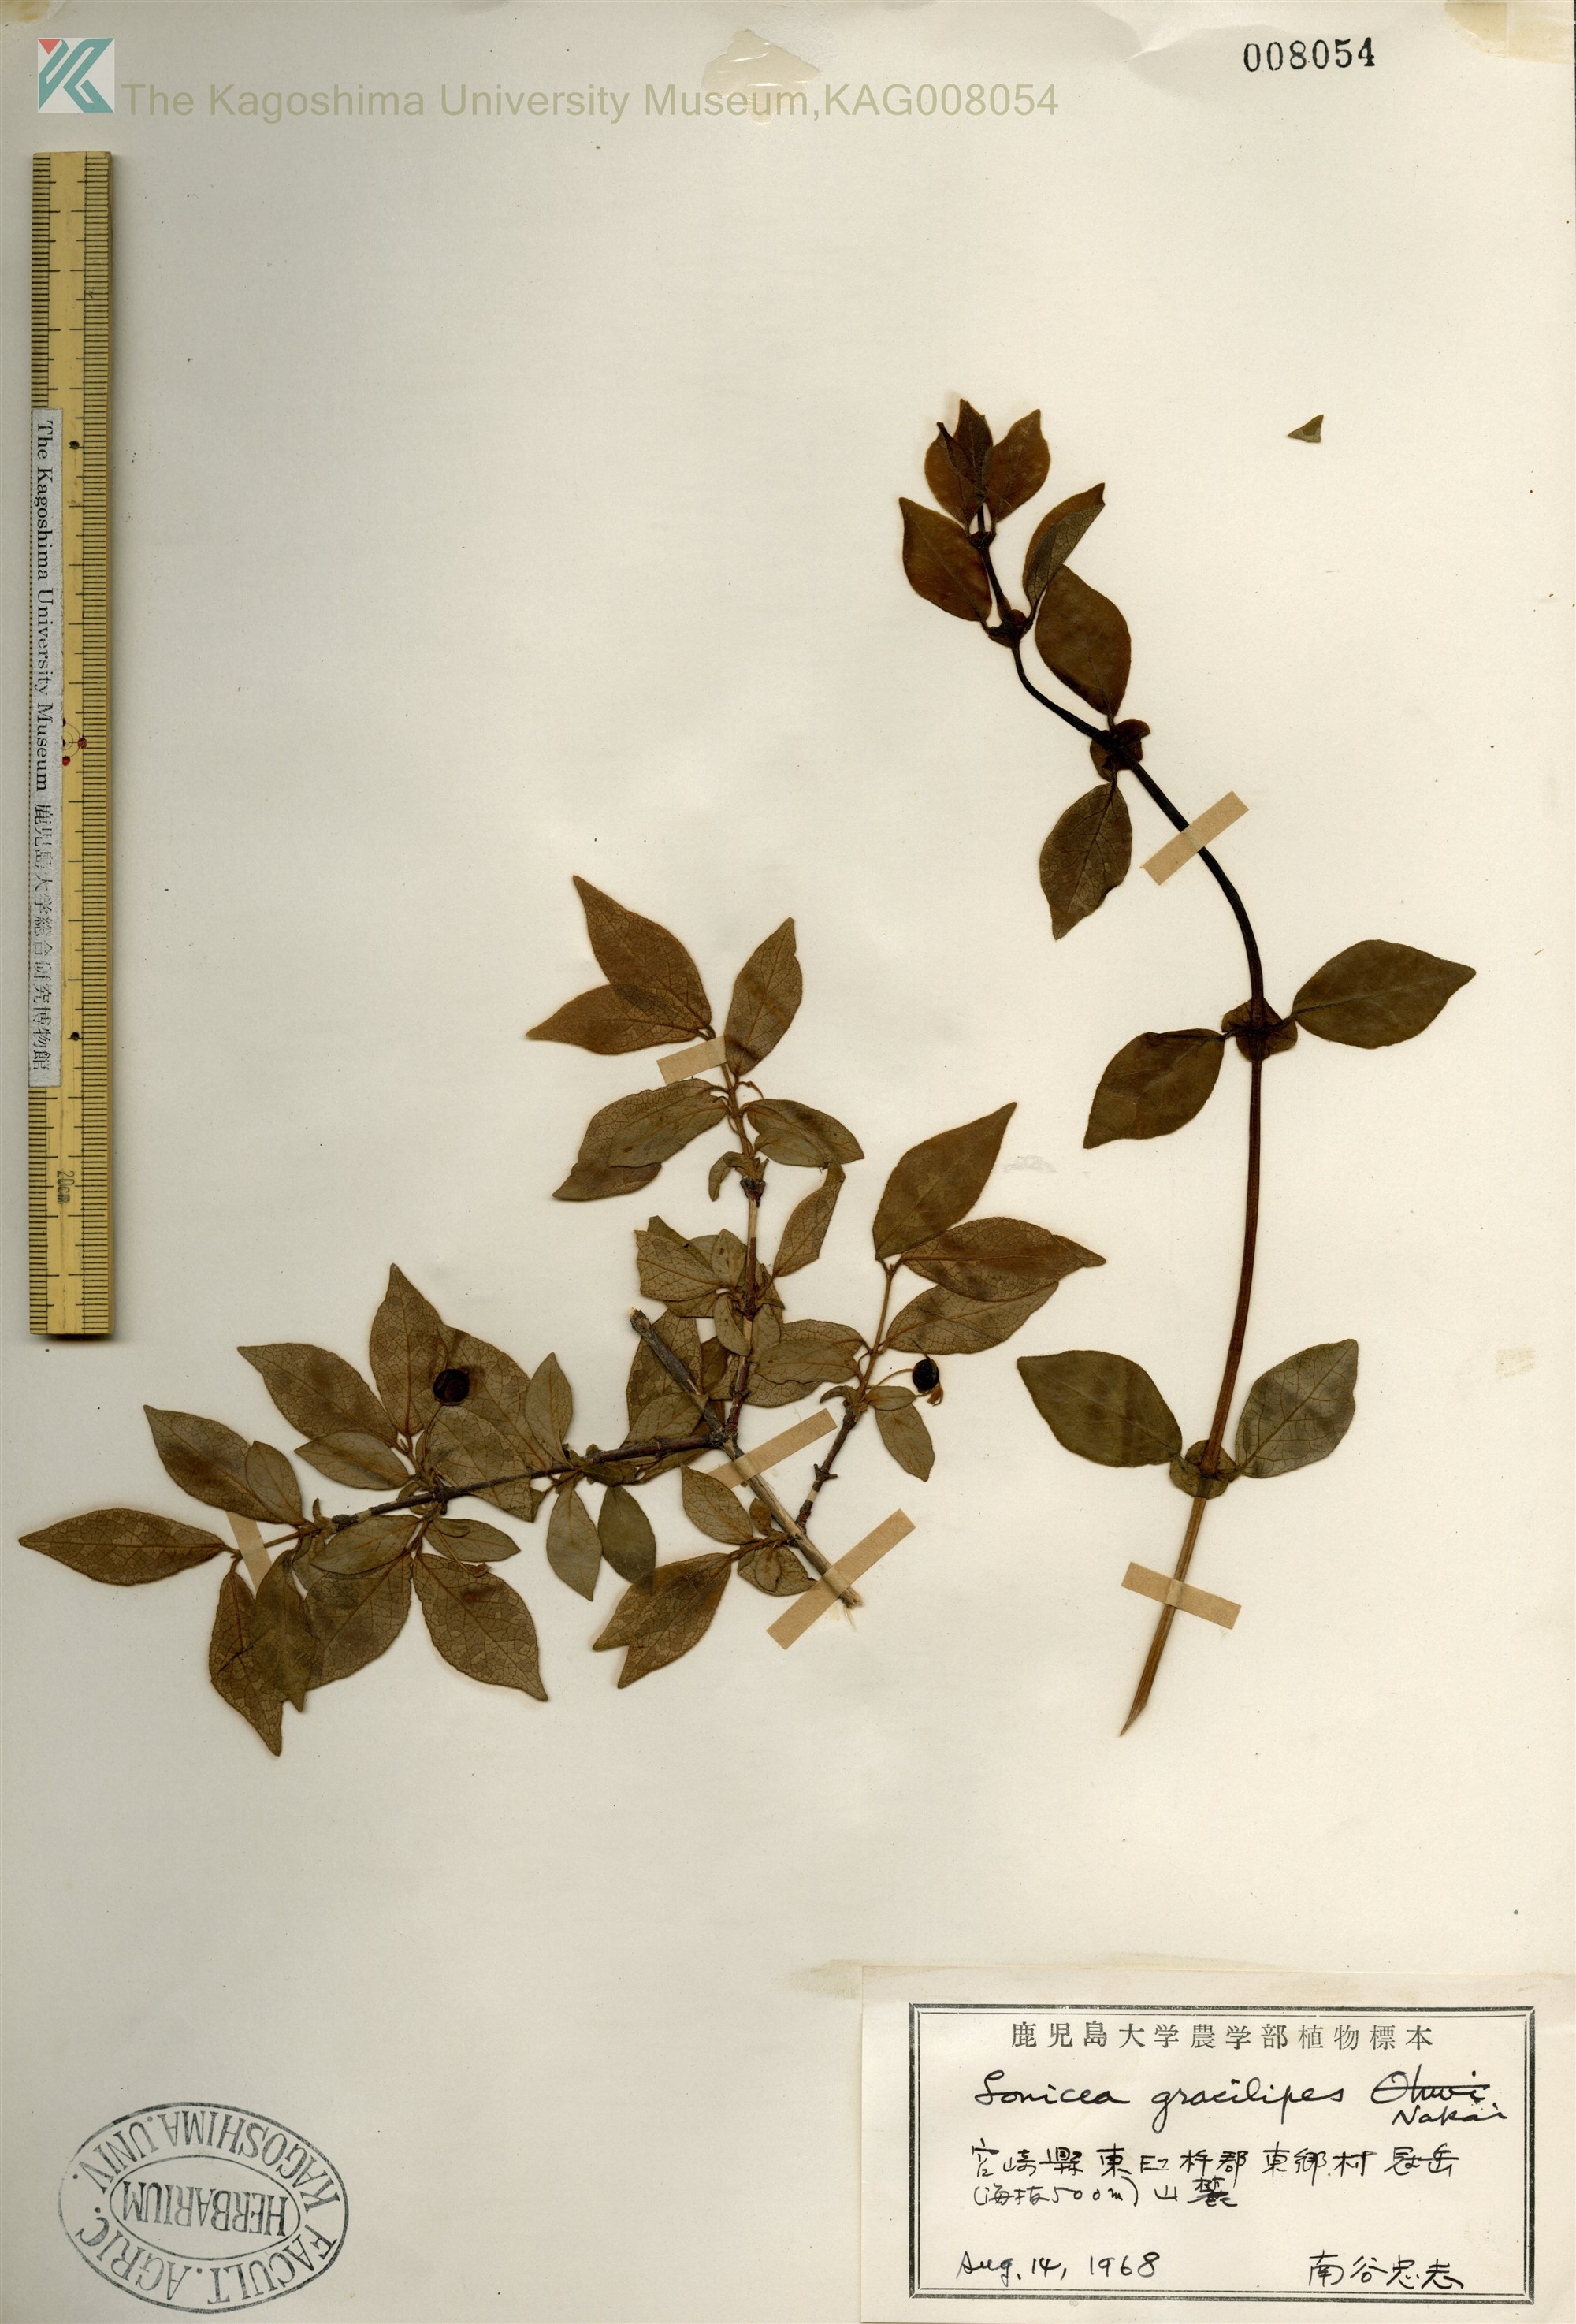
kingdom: Plantae
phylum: Tracheophyta
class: Magnoliopsida
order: Dipsacales
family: Caprifoliaceae
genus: Lonicera
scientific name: Lonicera gracilipes
